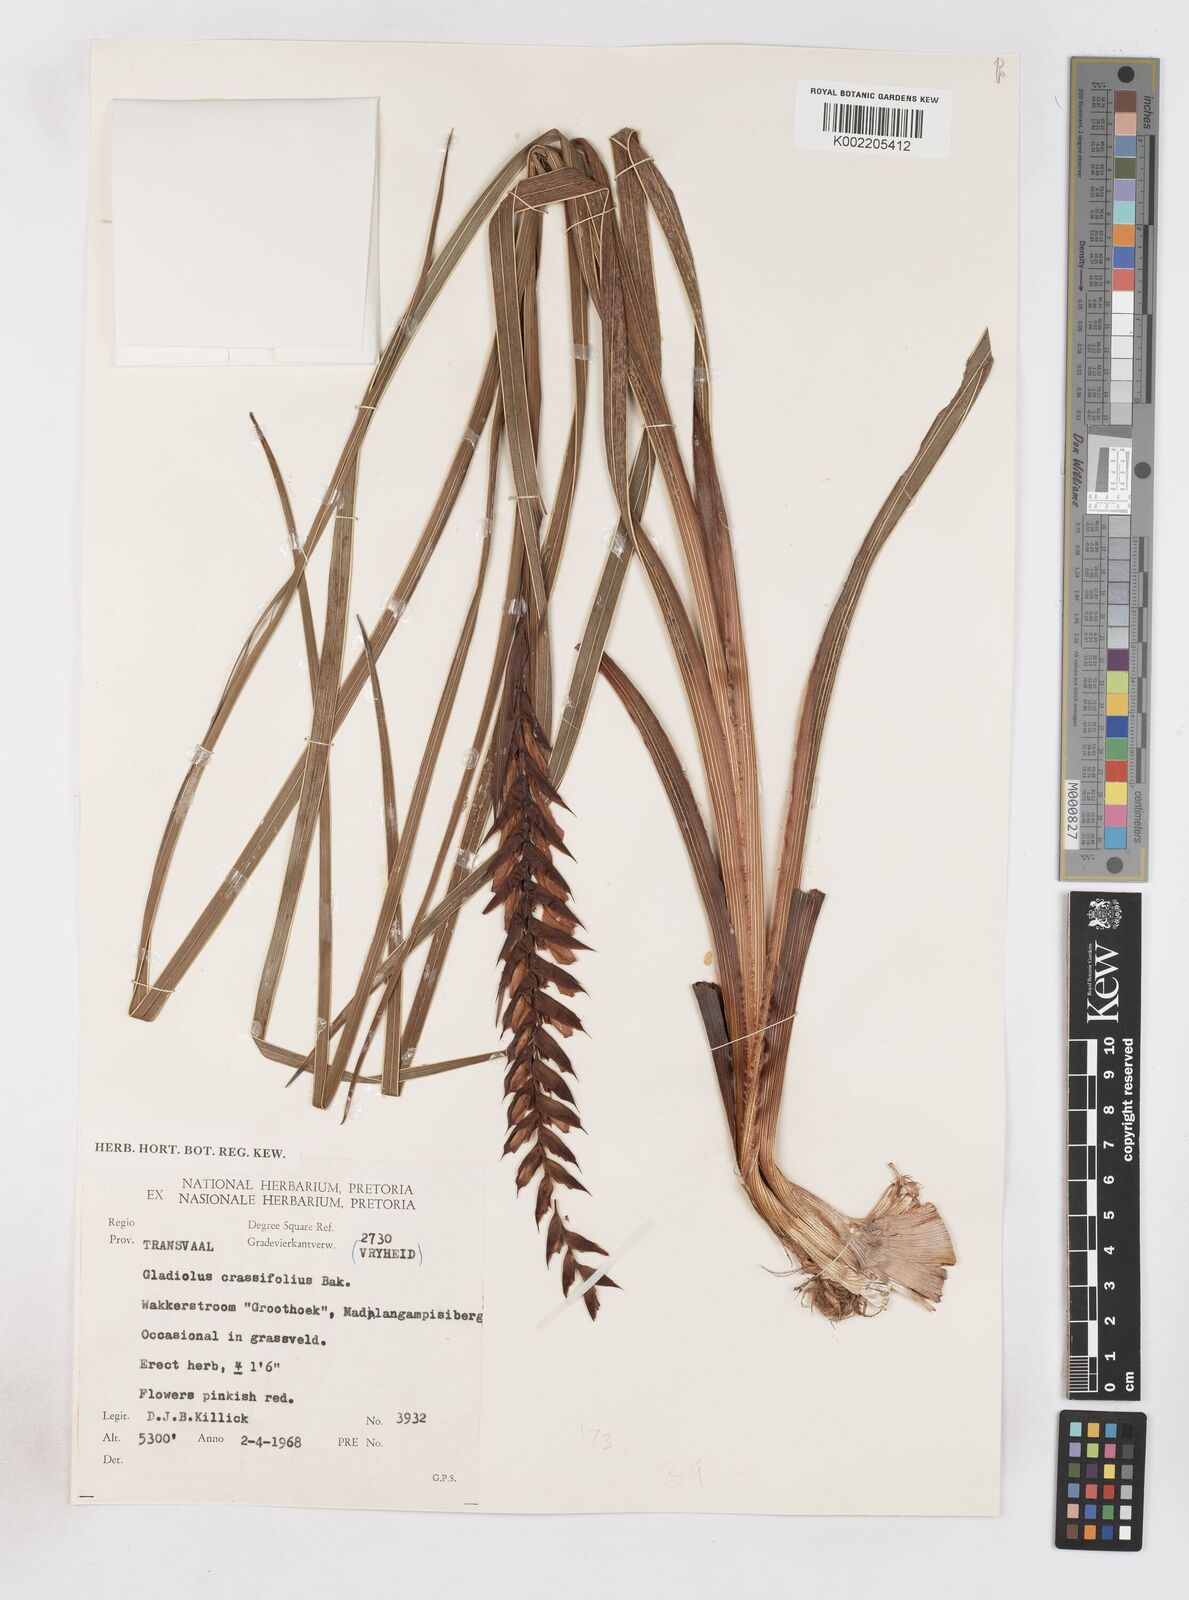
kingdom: Plantae
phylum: Tracheophyta
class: Liliopsida
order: Asparagales
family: Iridaceae
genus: Gladiolus
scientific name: Gladiolus densiflorus
